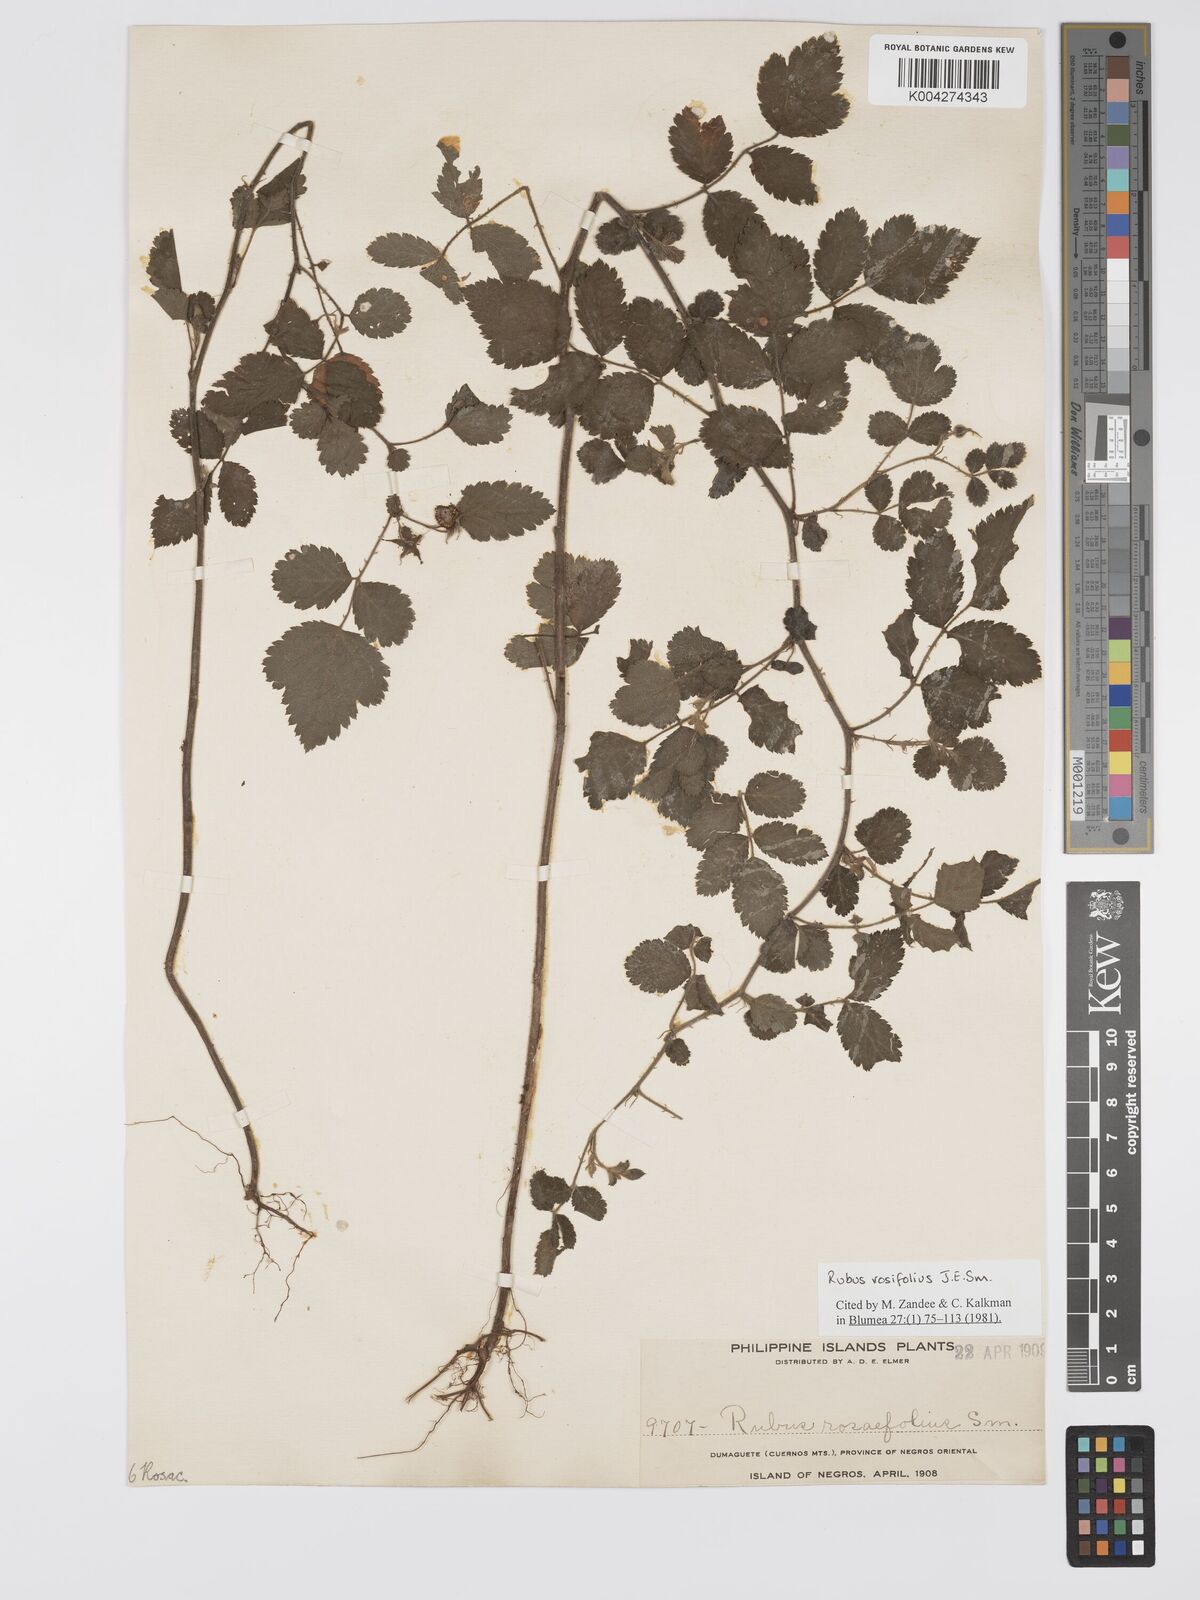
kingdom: Plantae
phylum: Tracheophyta
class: Magnoliopsida
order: Rosales
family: Rosaceae
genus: Rubus
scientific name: Rubus
